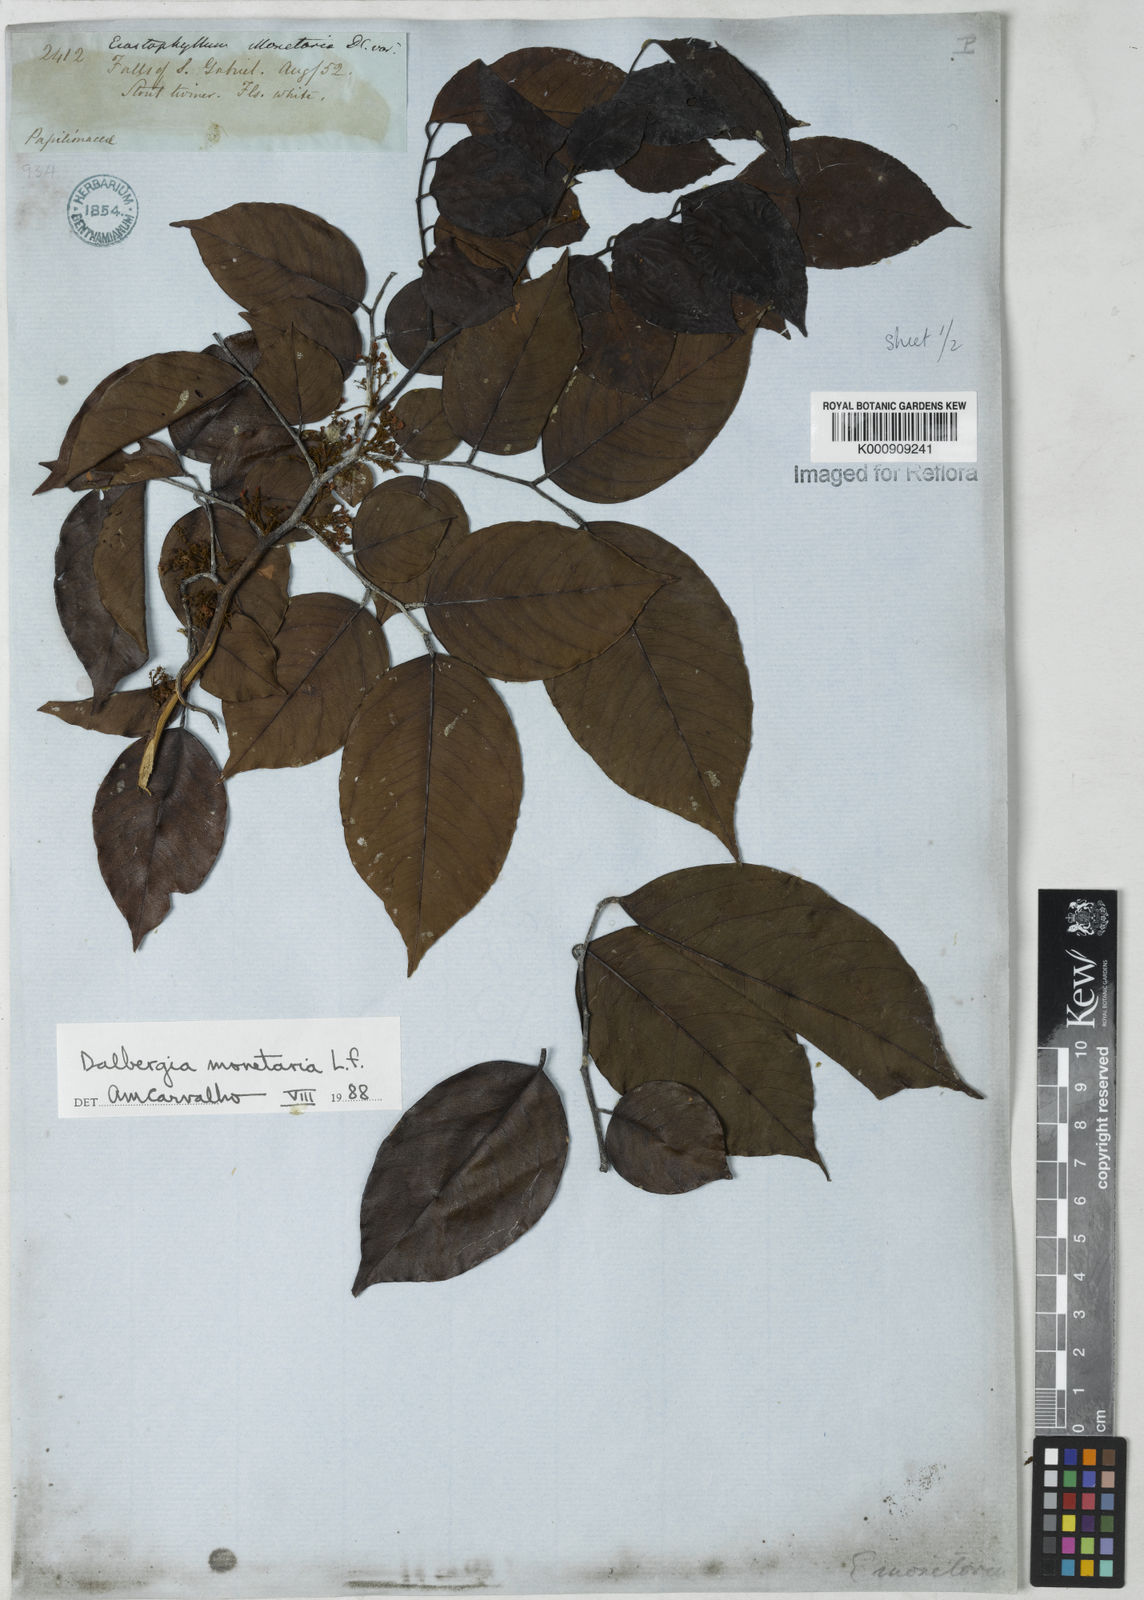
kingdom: Plantae
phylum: Tracheophyta
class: Magnoliopsida
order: Fabales
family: Fabaceae
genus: Dalbergia
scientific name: Dalbergia ovalis
